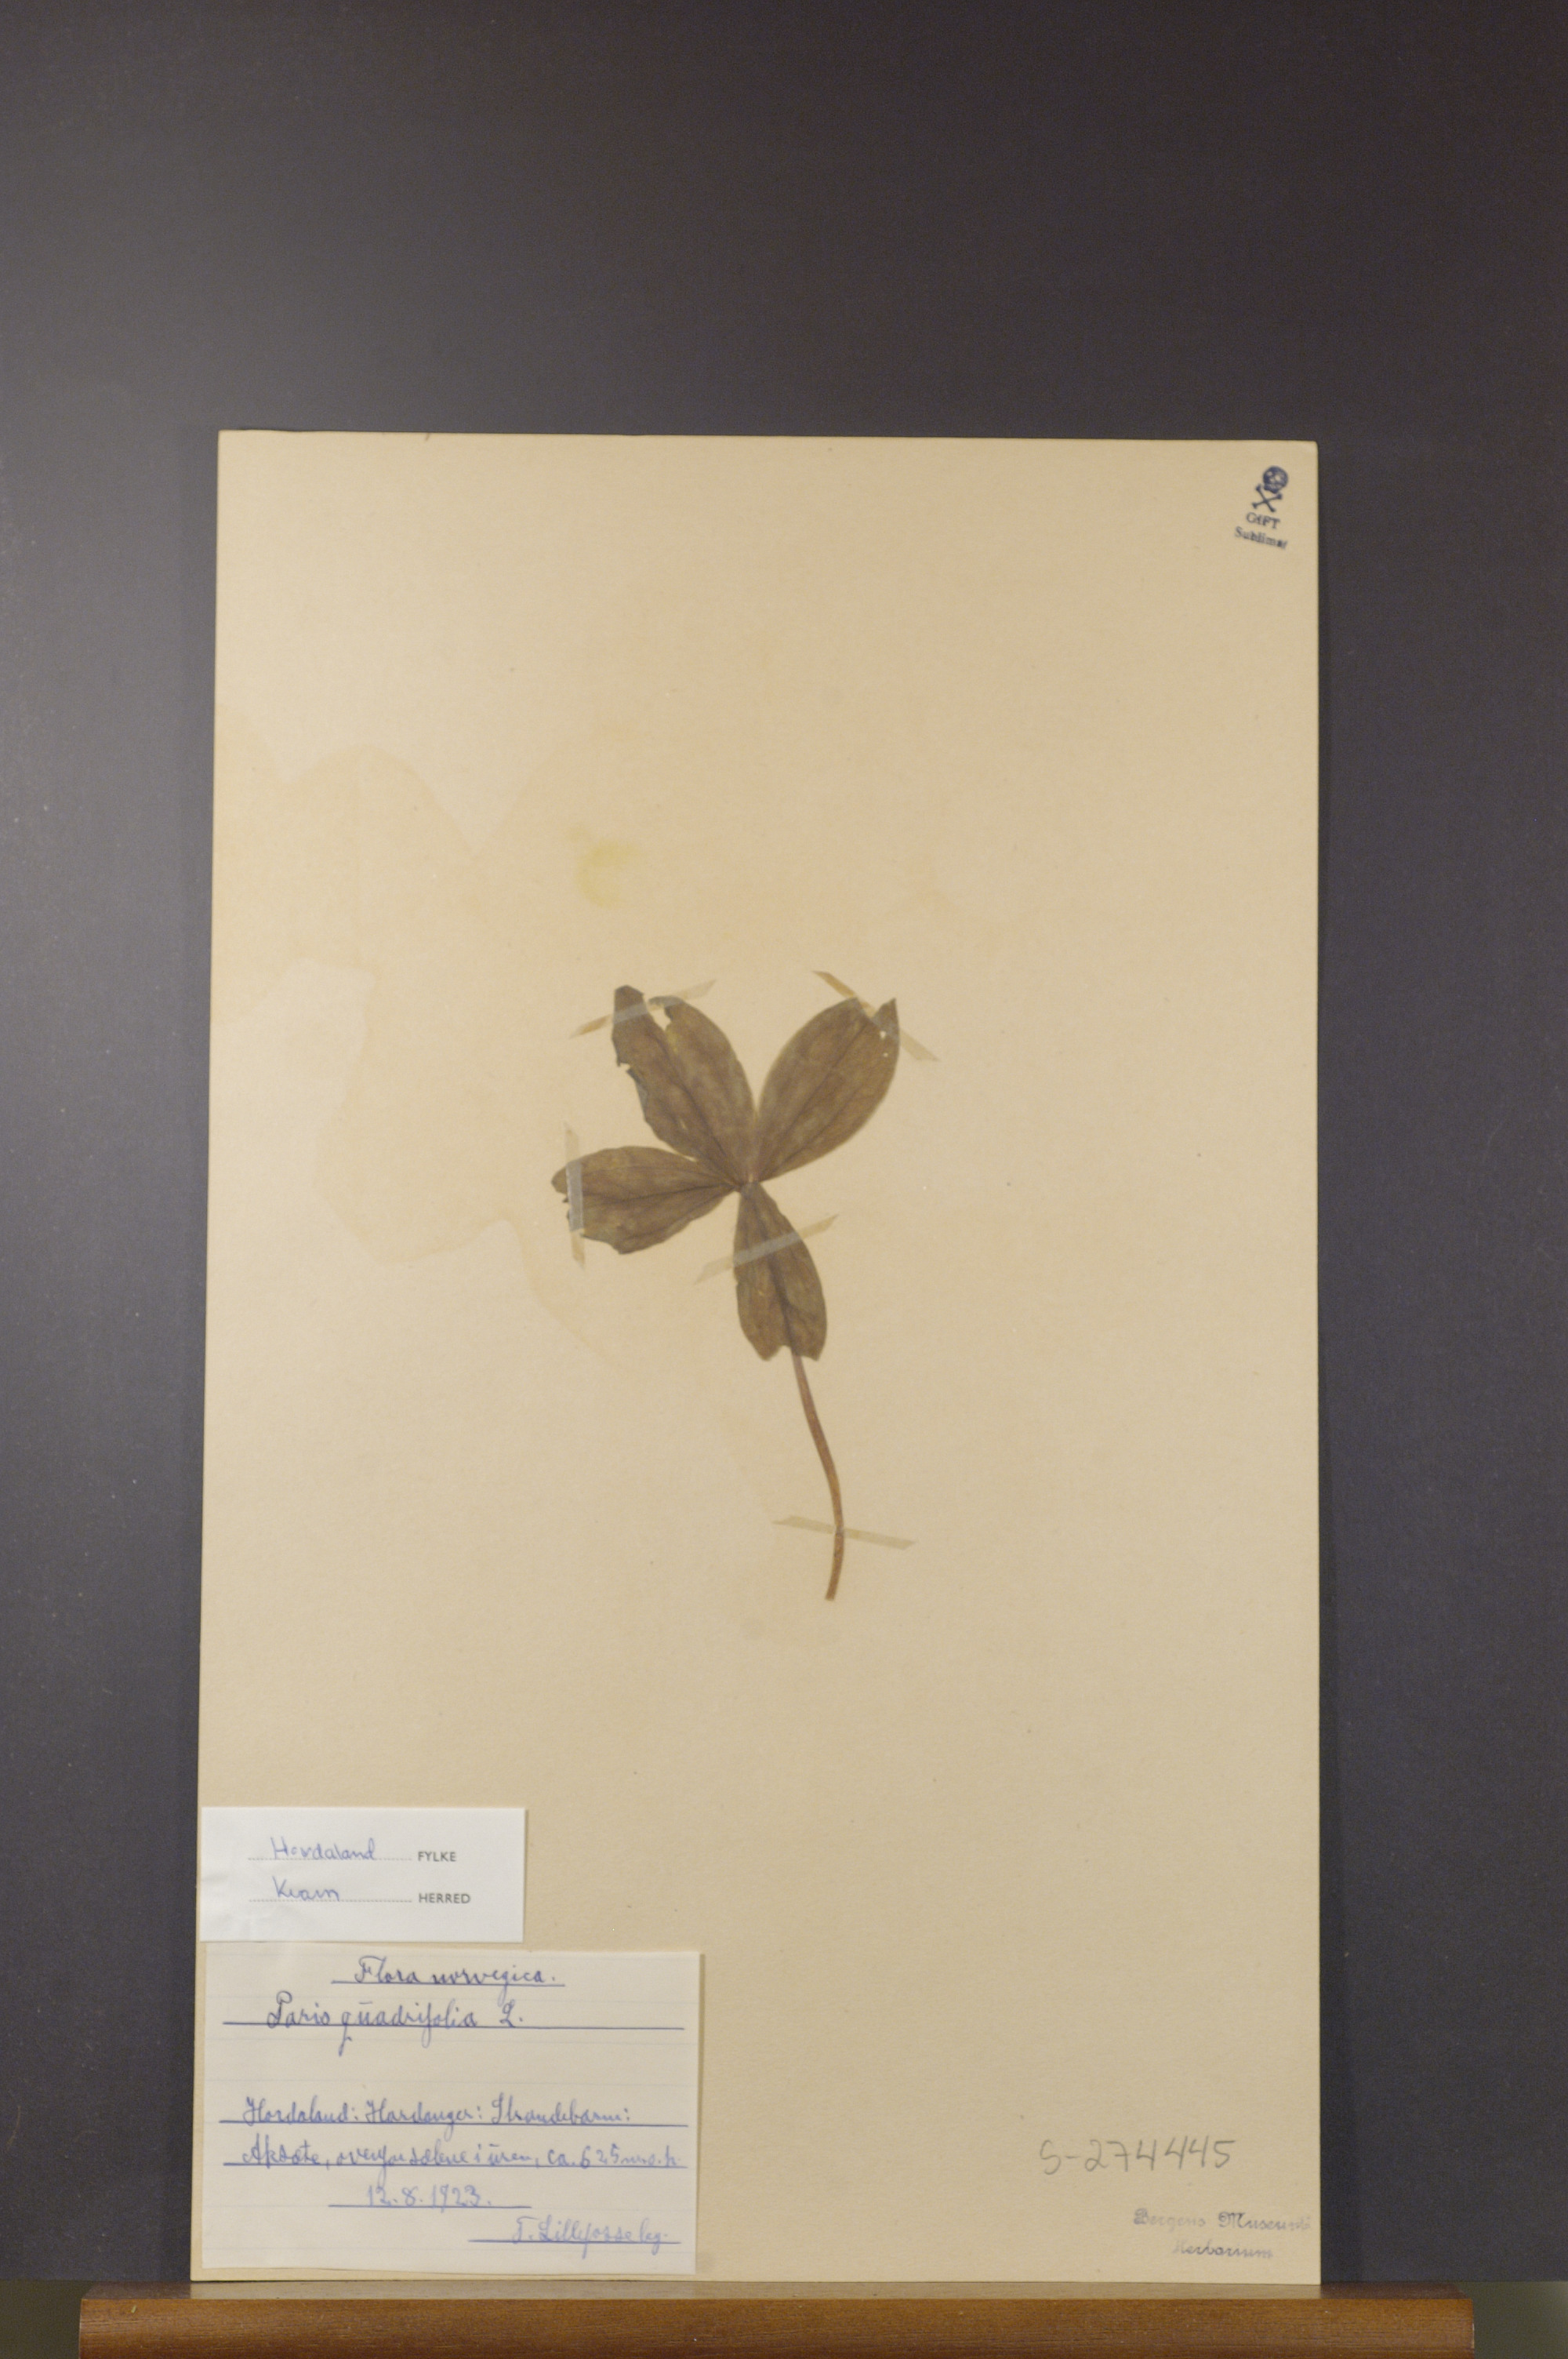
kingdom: Plantae
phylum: Tracheophyta
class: Liliopsida
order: Liliales
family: Melanthiaceae
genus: Paris
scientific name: Paris quadrifolia
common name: Herb-paris
